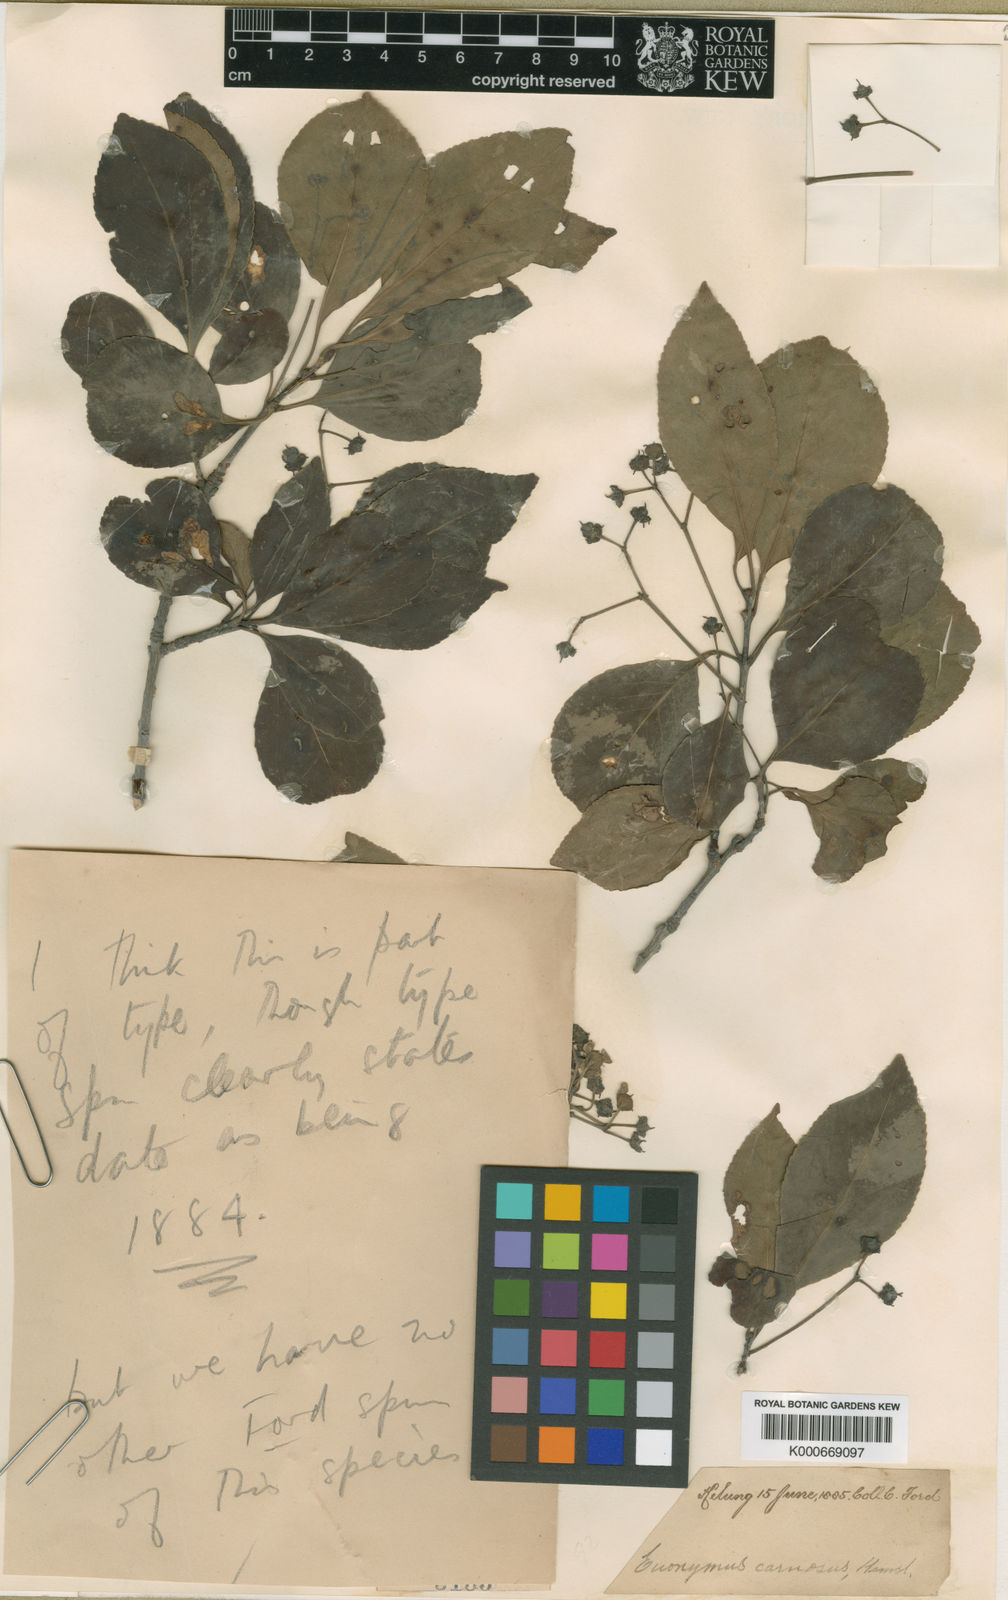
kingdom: Plantae
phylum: Tracheophyta
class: Magnoliopsida
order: Celastrales
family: Celastraceae
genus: Euonymus
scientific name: Euonymus carnosus
